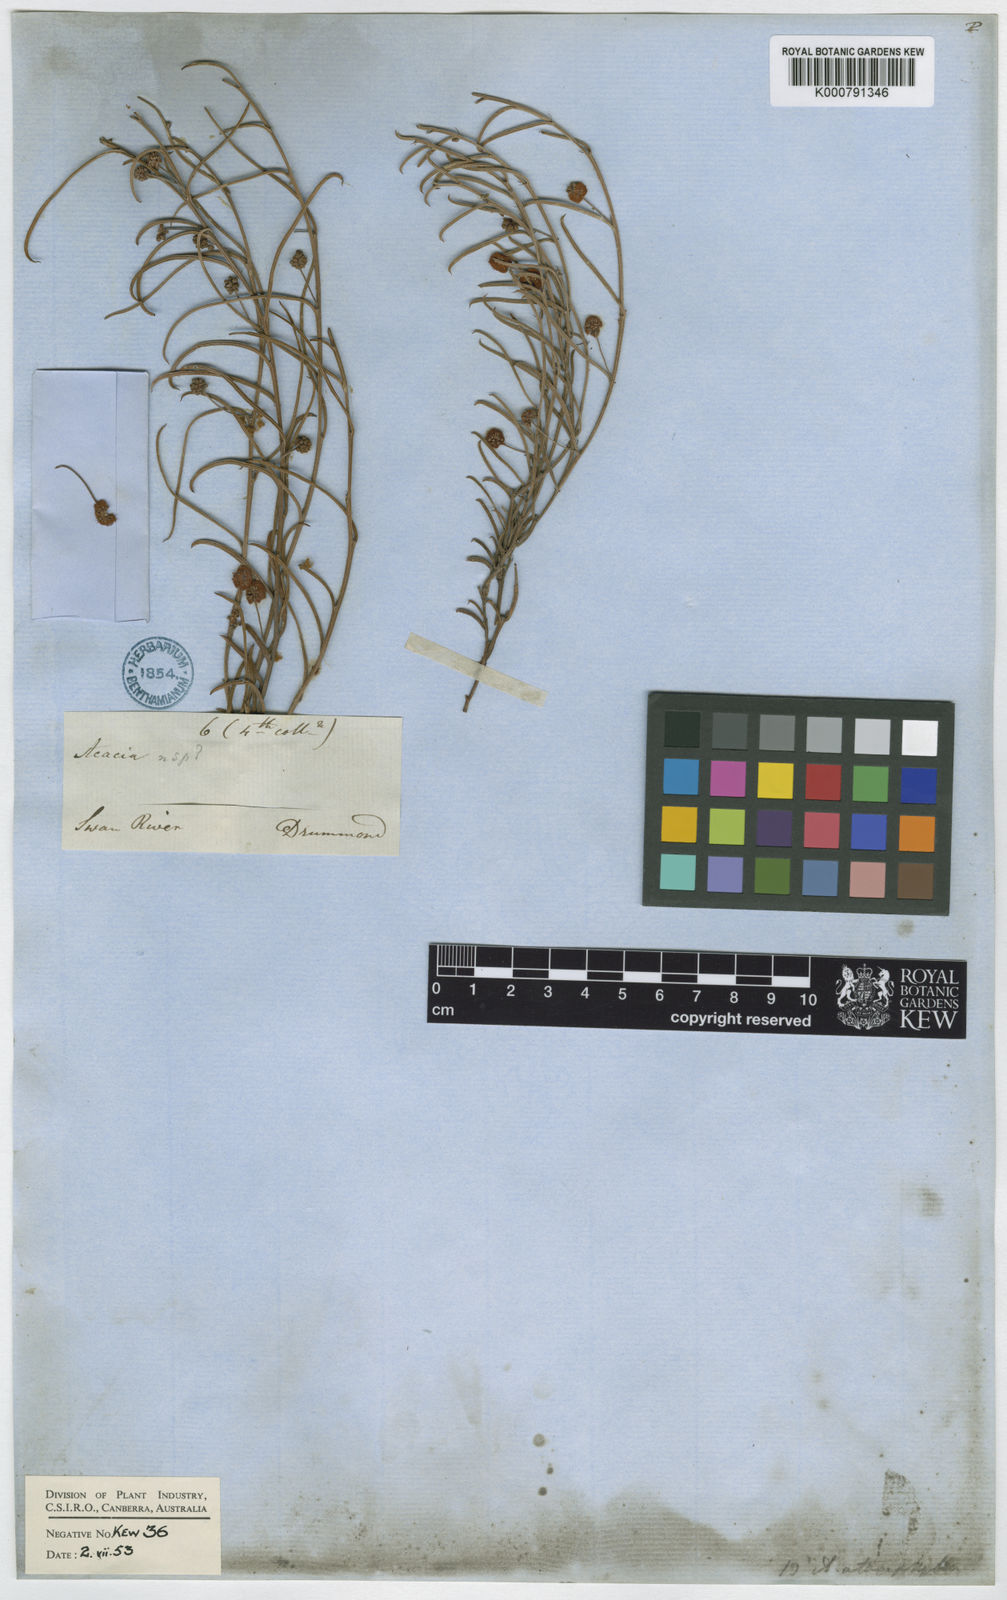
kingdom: Plantae
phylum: Tracheophyta
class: Magnoliopsida
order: Fabales
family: Fabaceae
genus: Acacia
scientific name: Acacia ataxiphylla
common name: Large-fruited tammin wattle
